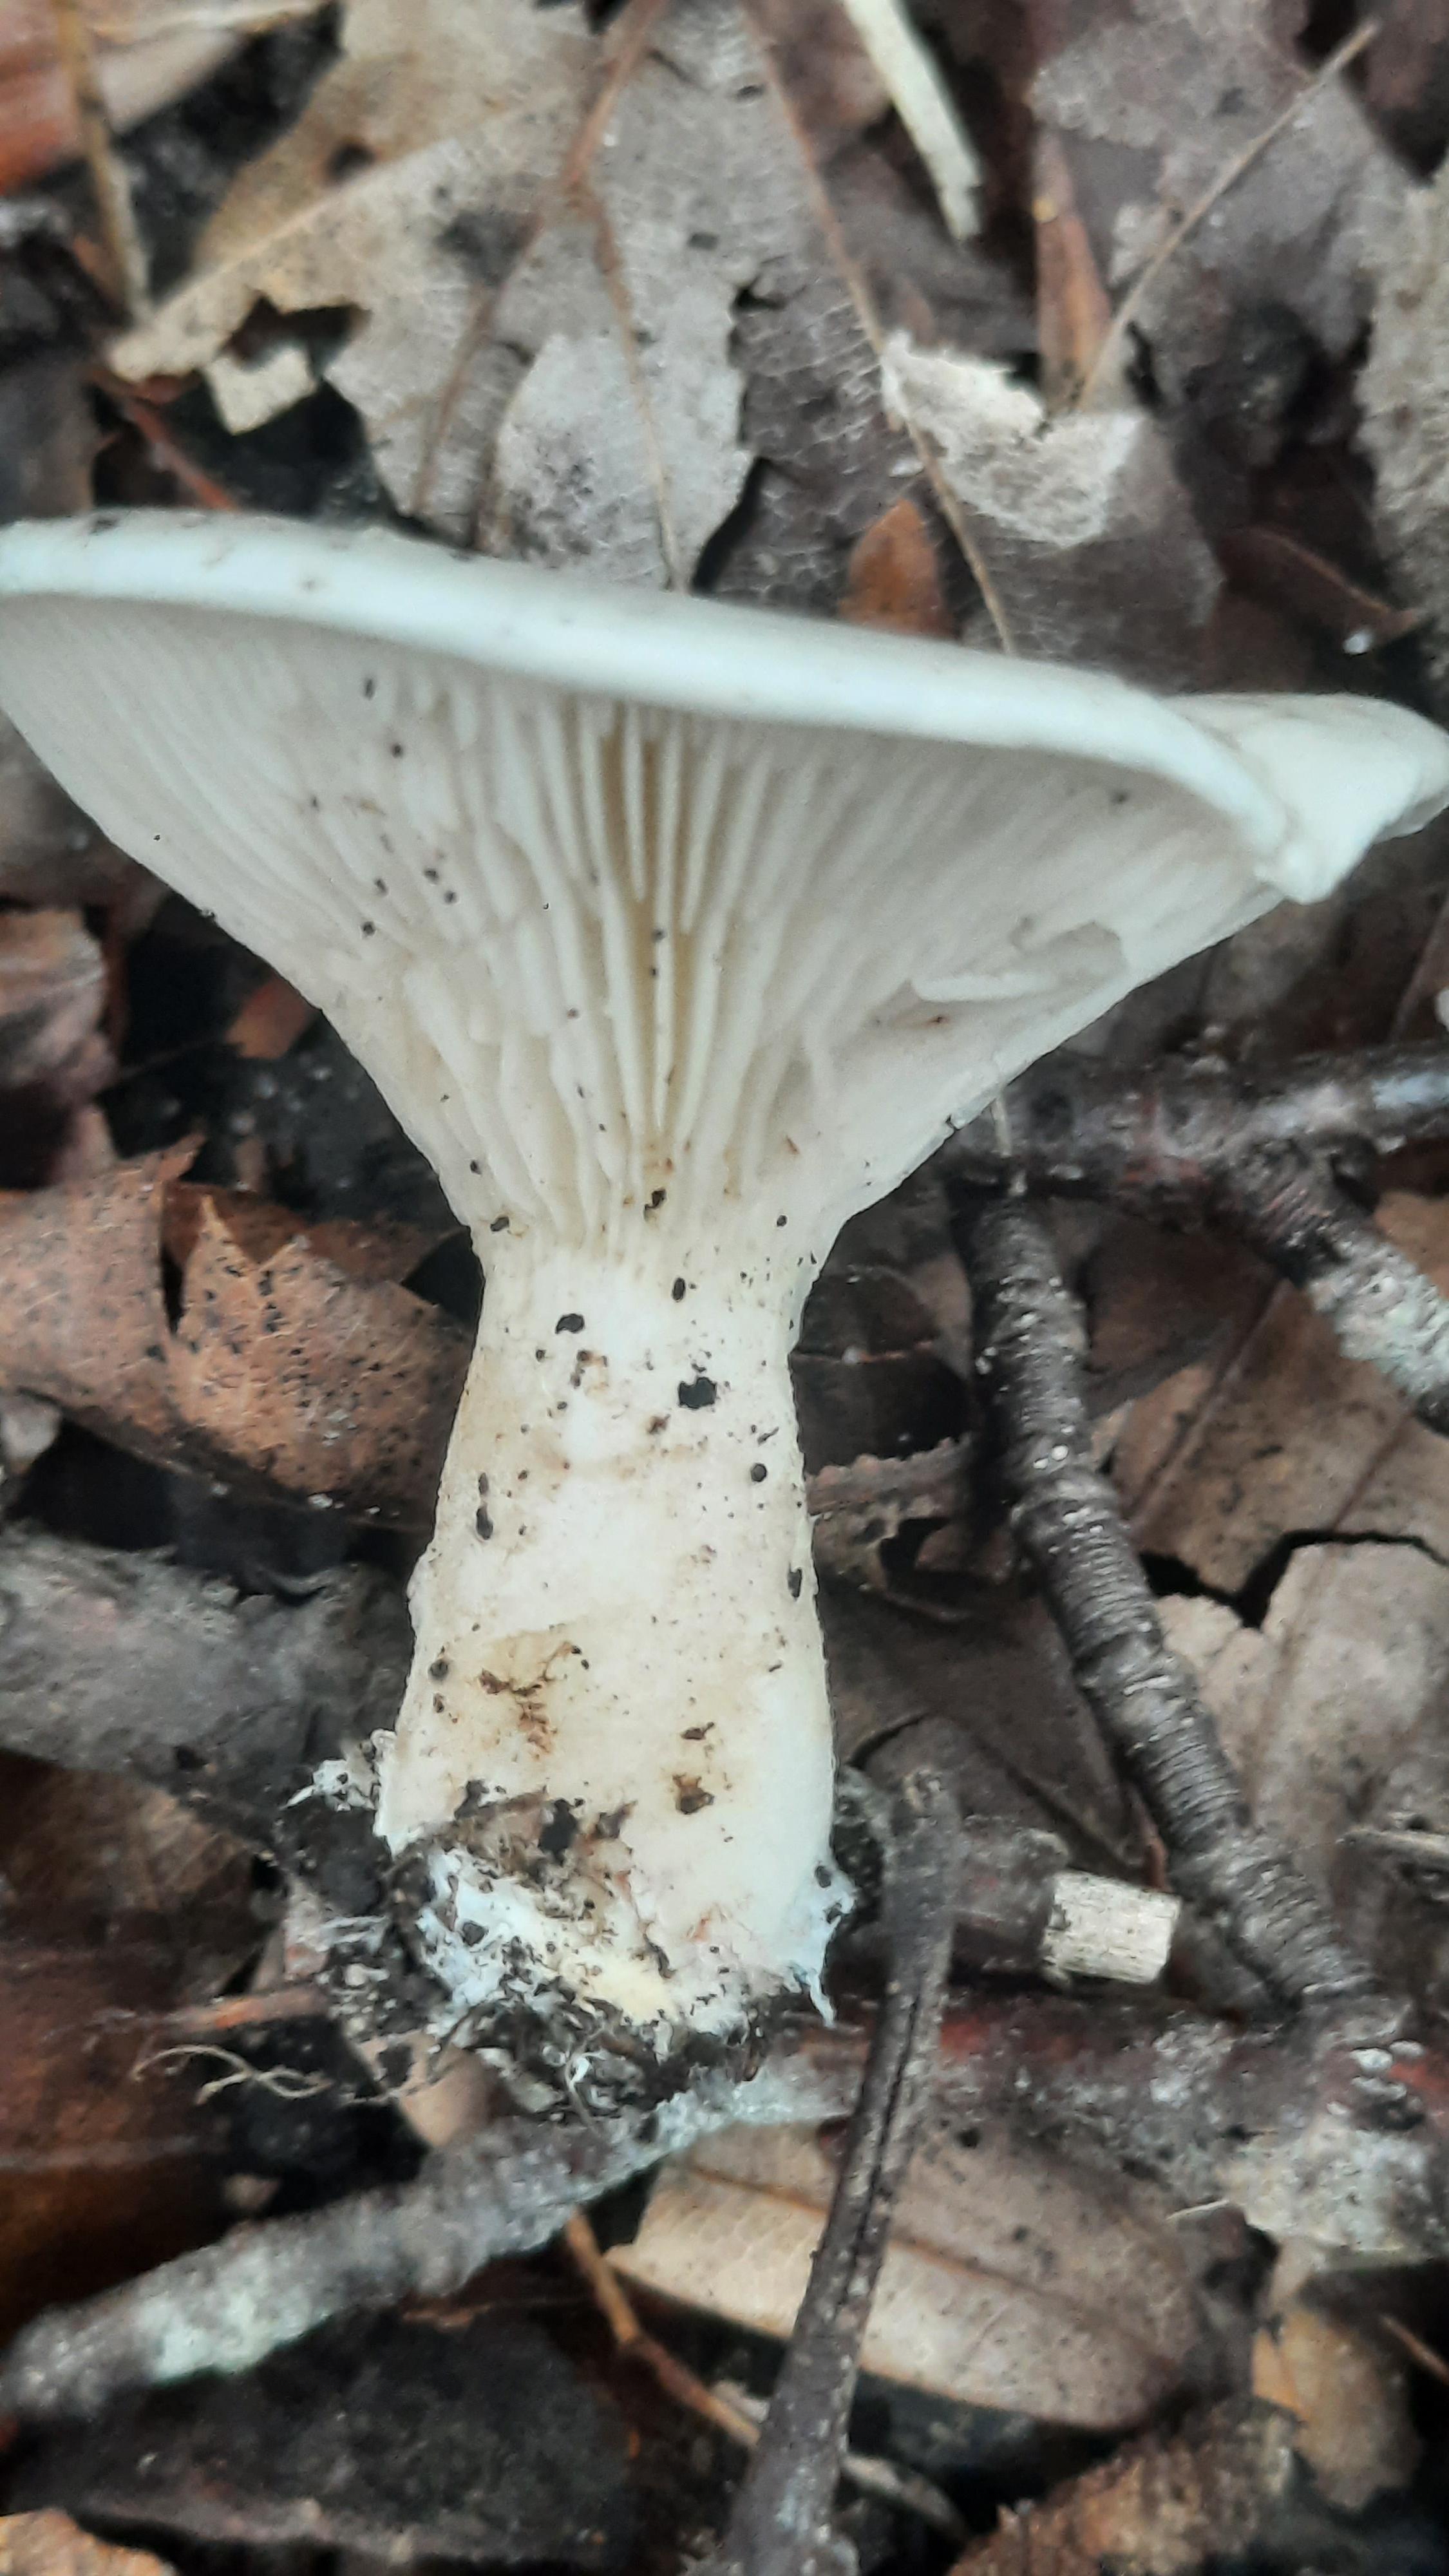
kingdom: Fungi
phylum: Basidiomycota
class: Agaricomycetes
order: Agaricales
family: Entolomataceae
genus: Clitopilus
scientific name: Clitopilus prunulus
